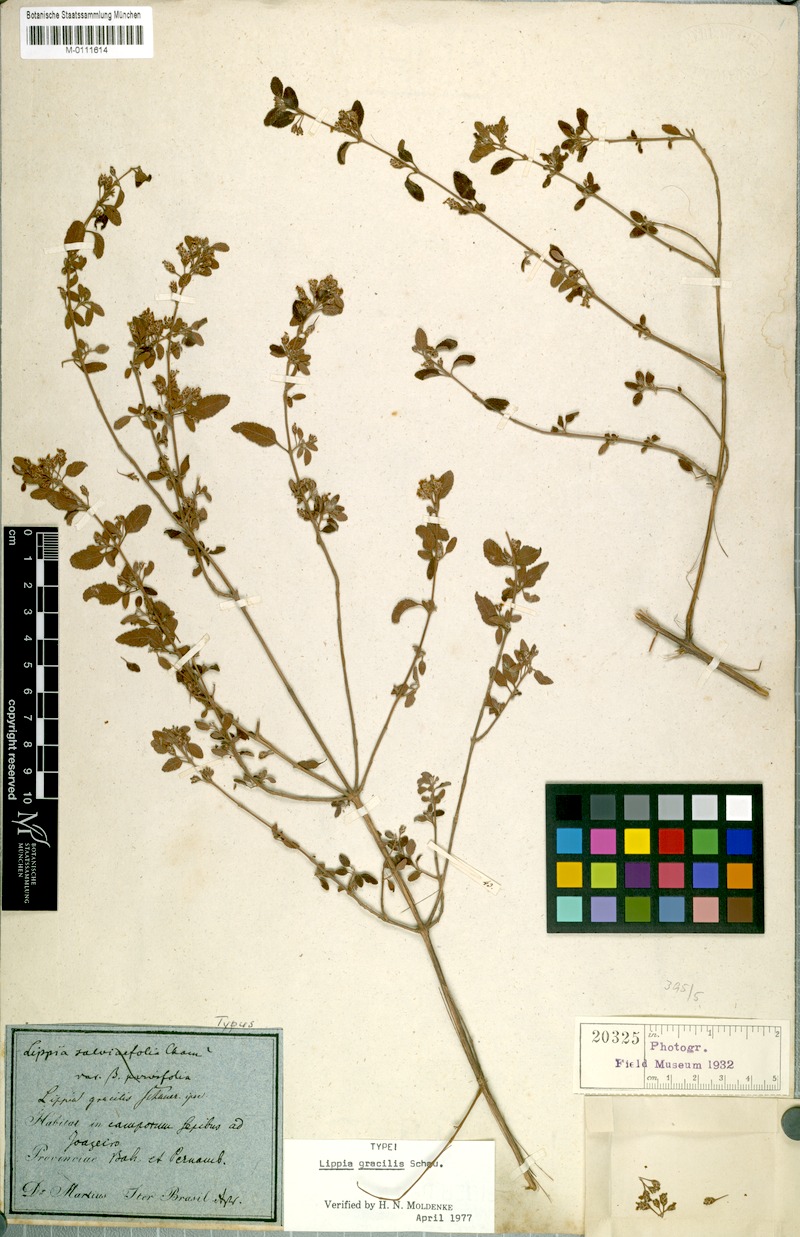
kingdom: Plantae
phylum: Tracheophyta
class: Magnoliopsida
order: Lamiales
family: Verbenaceae
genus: Lippia
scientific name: Lippia grata
